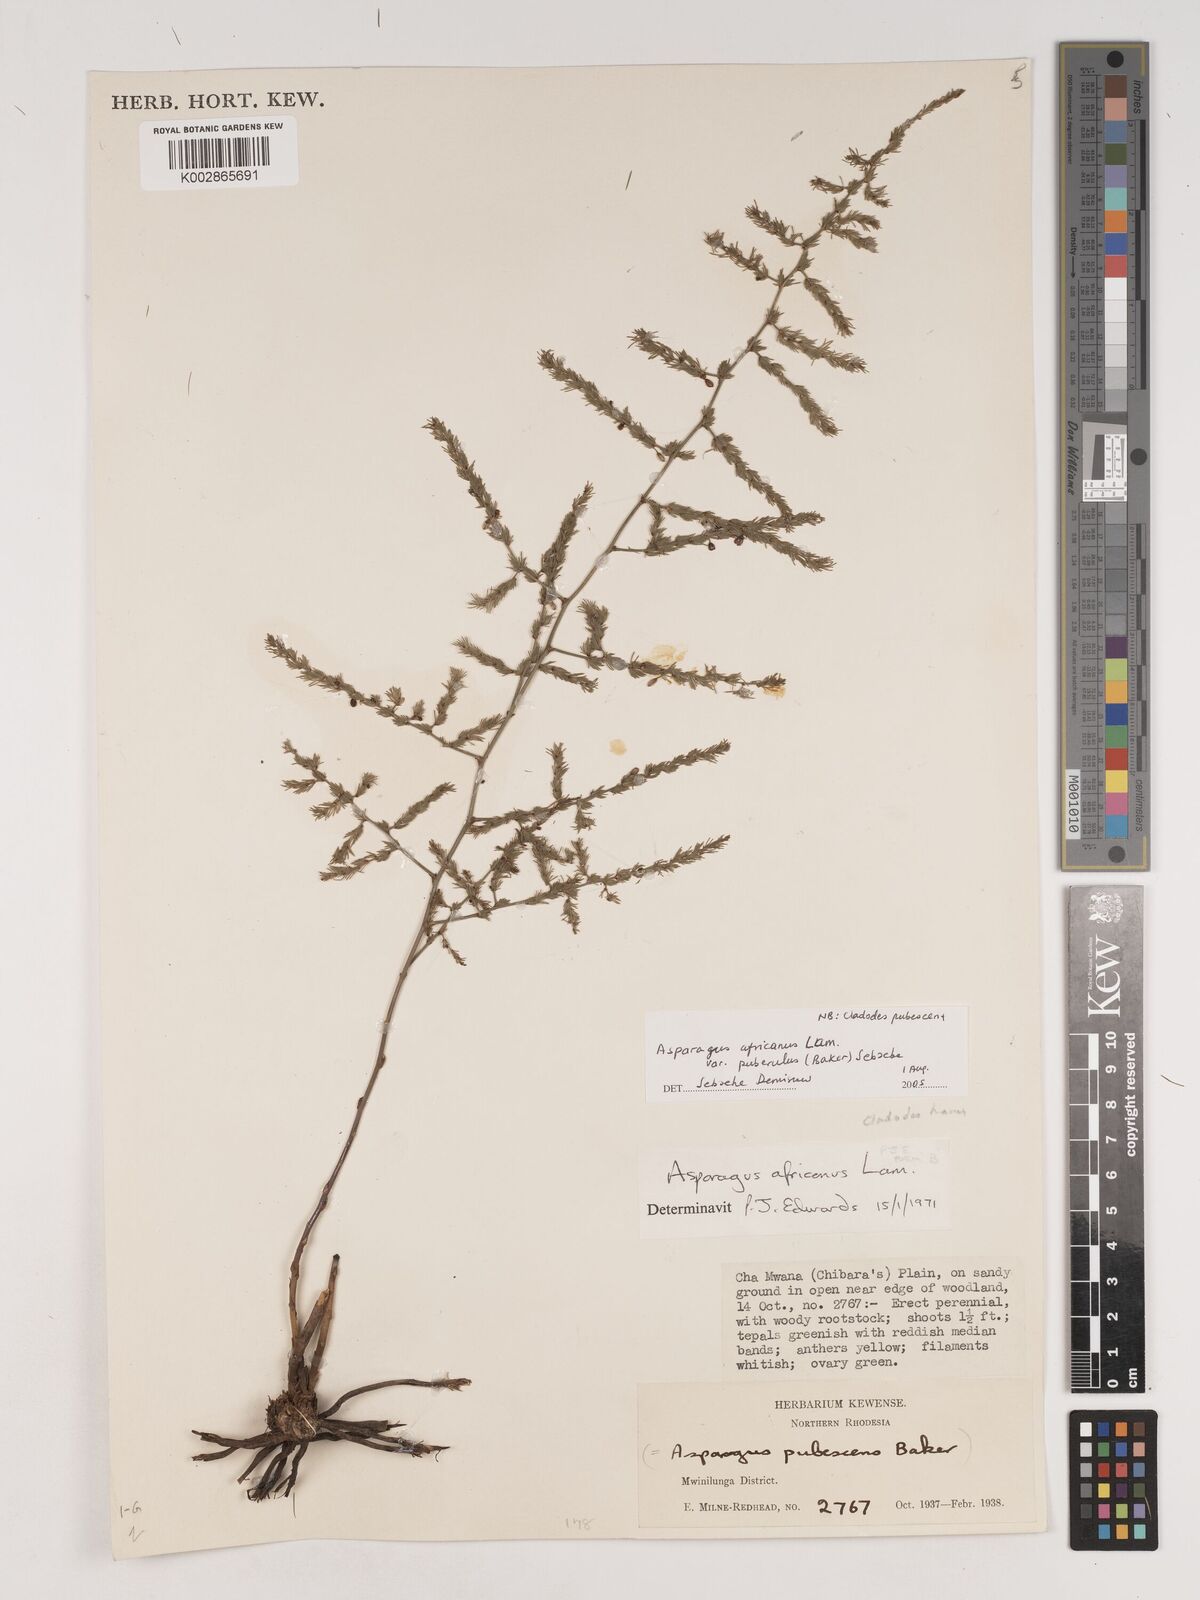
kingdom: Plantae
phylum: Tracheophyta
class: Liliopsida
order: Asparagales
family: Asparagaceae
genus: Asparagus
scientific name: Asparagus
